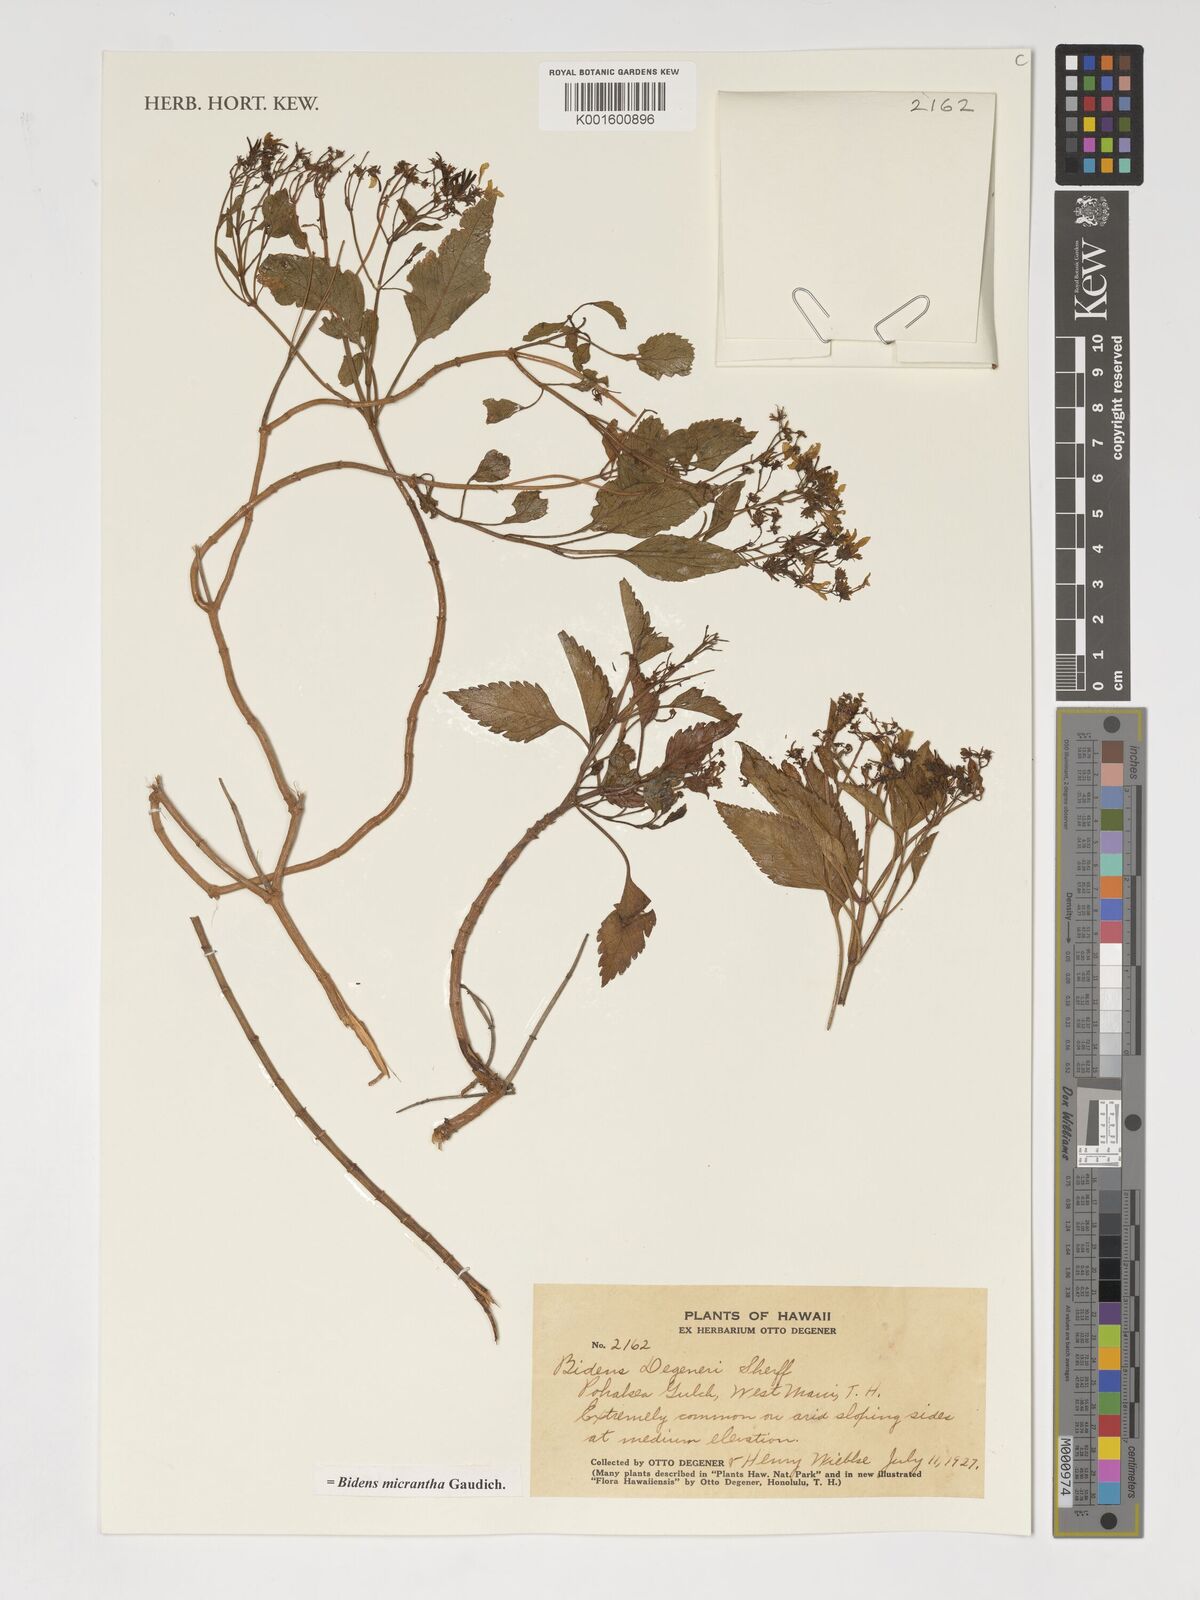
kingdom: Plantae
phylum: Tracheophyta
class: Magnoliopsida
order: Asterales
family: Asteraceae
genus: Bidens
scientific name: Bidens micrantha
